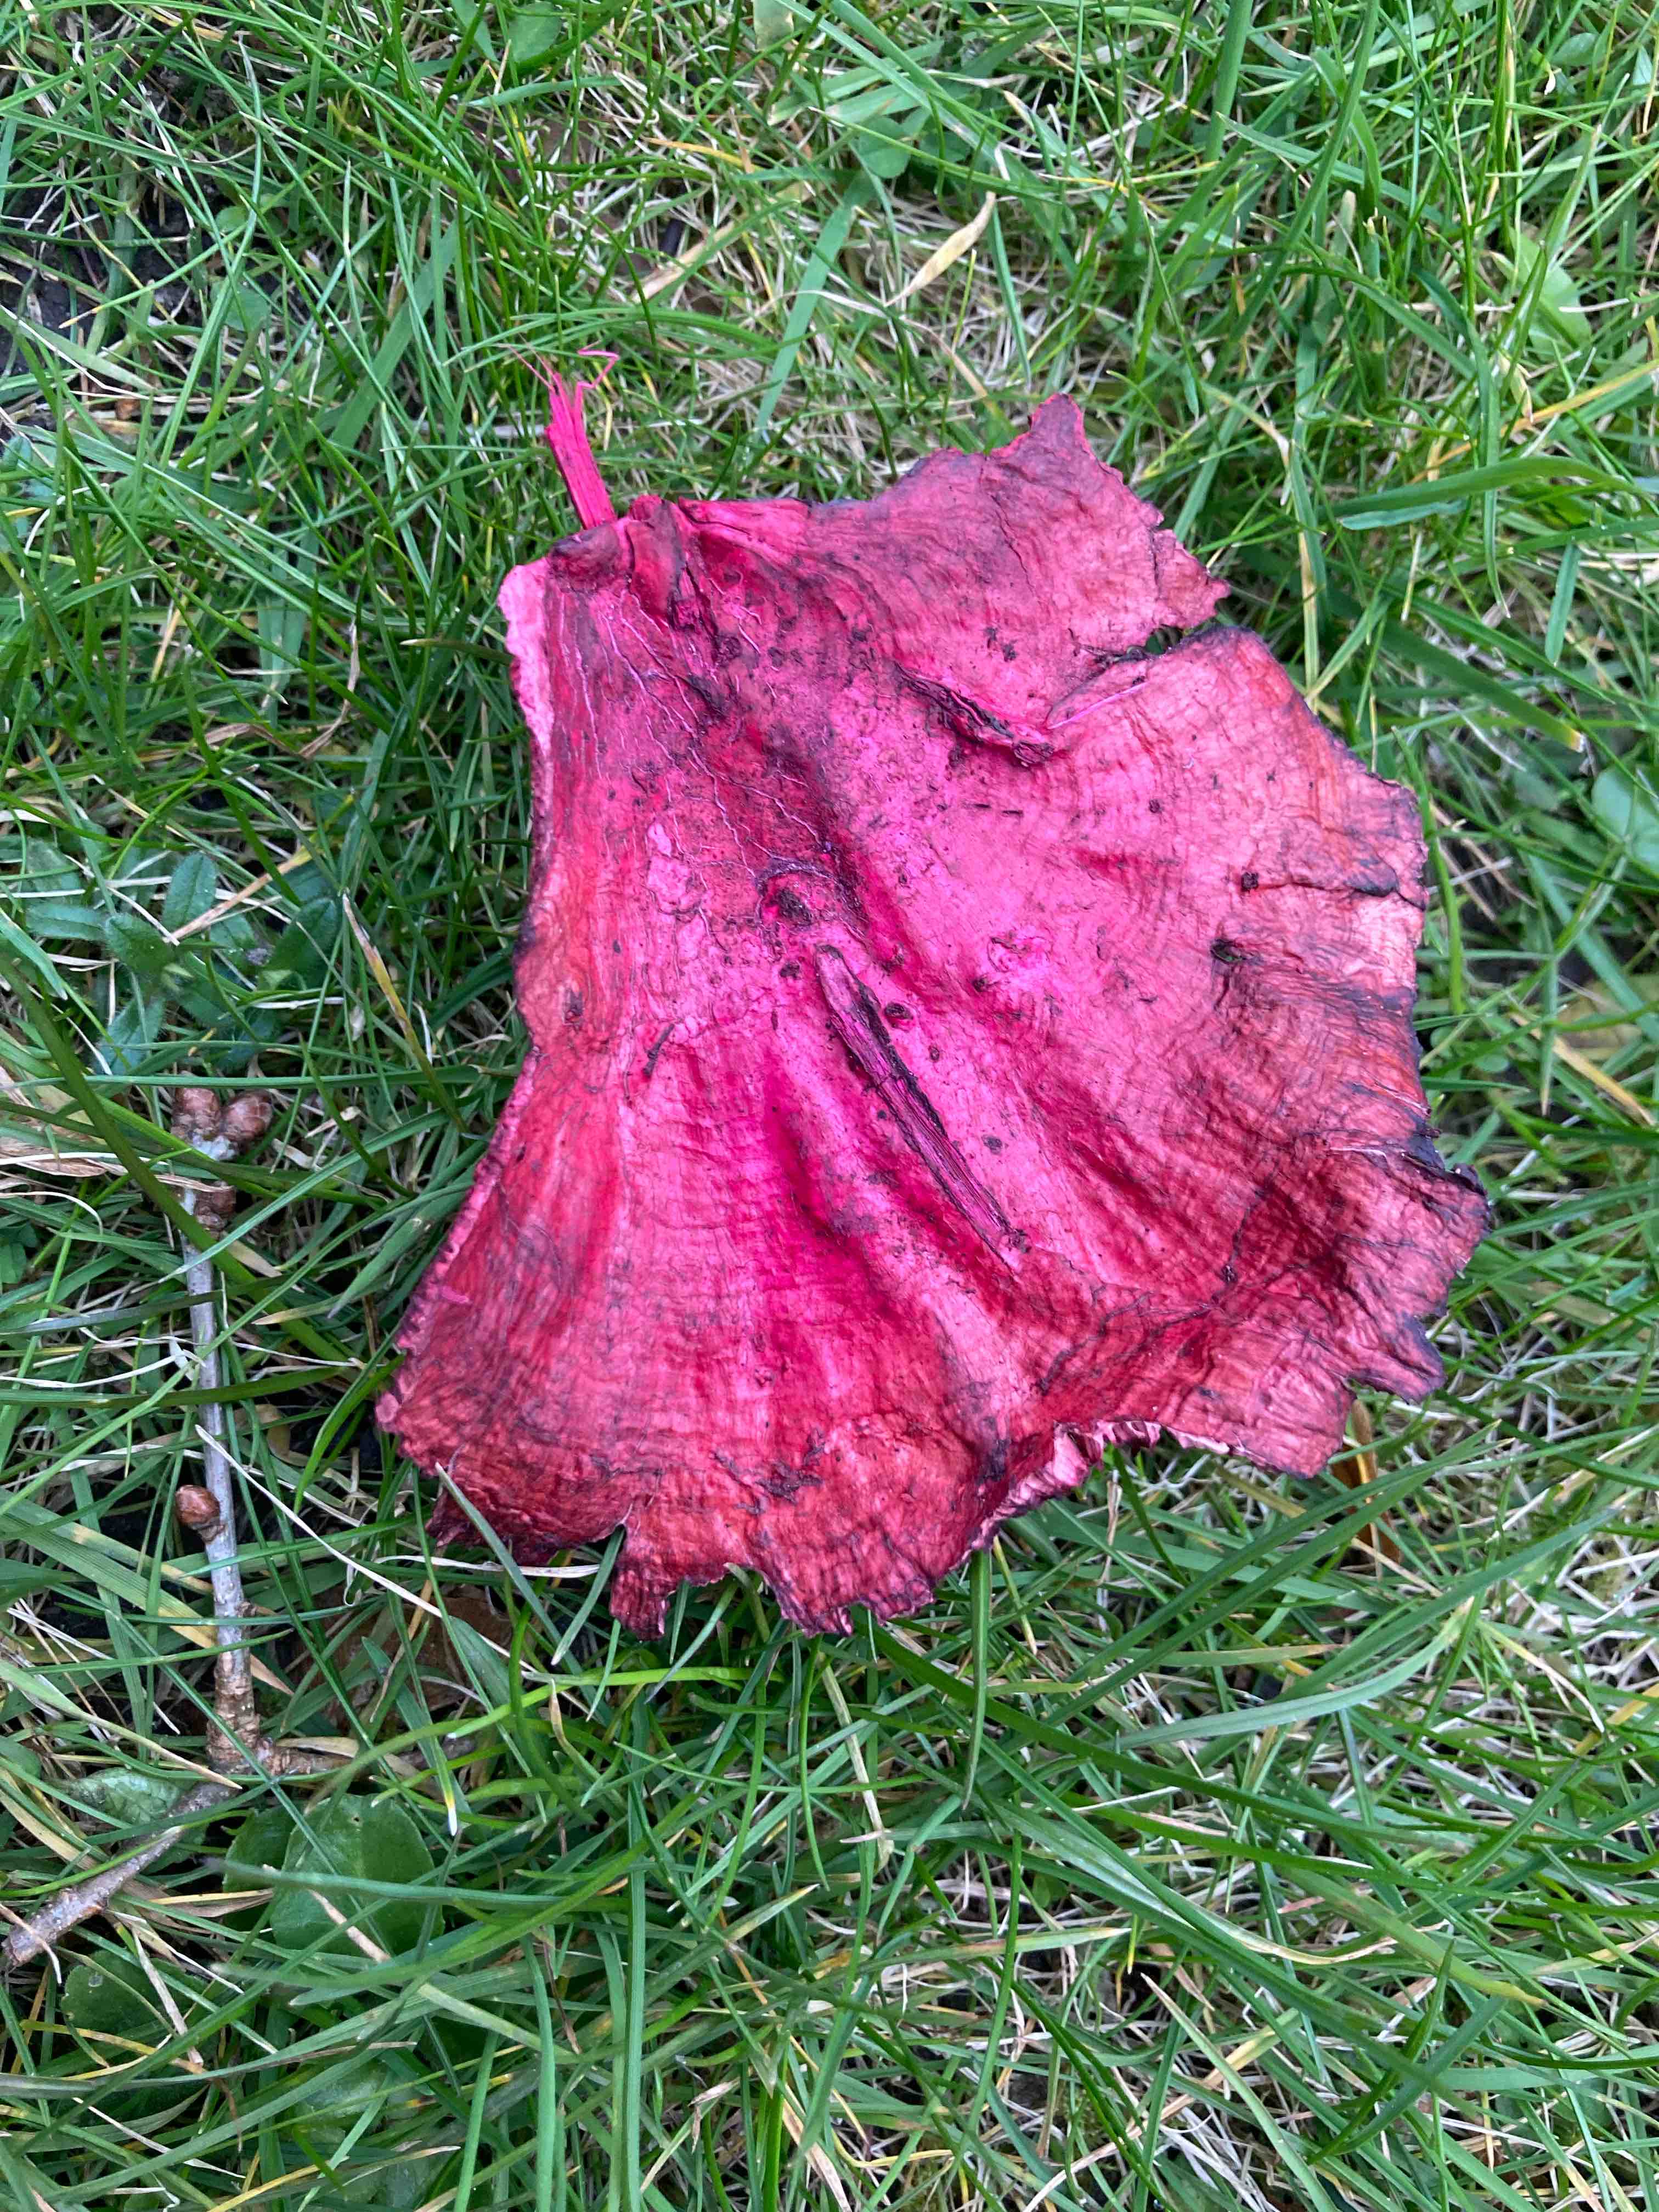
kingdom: Fungi
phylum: Basidiomycota
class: Agaricomycetes
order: Polyporales
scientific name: Polyporales
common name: poresvampordenen
